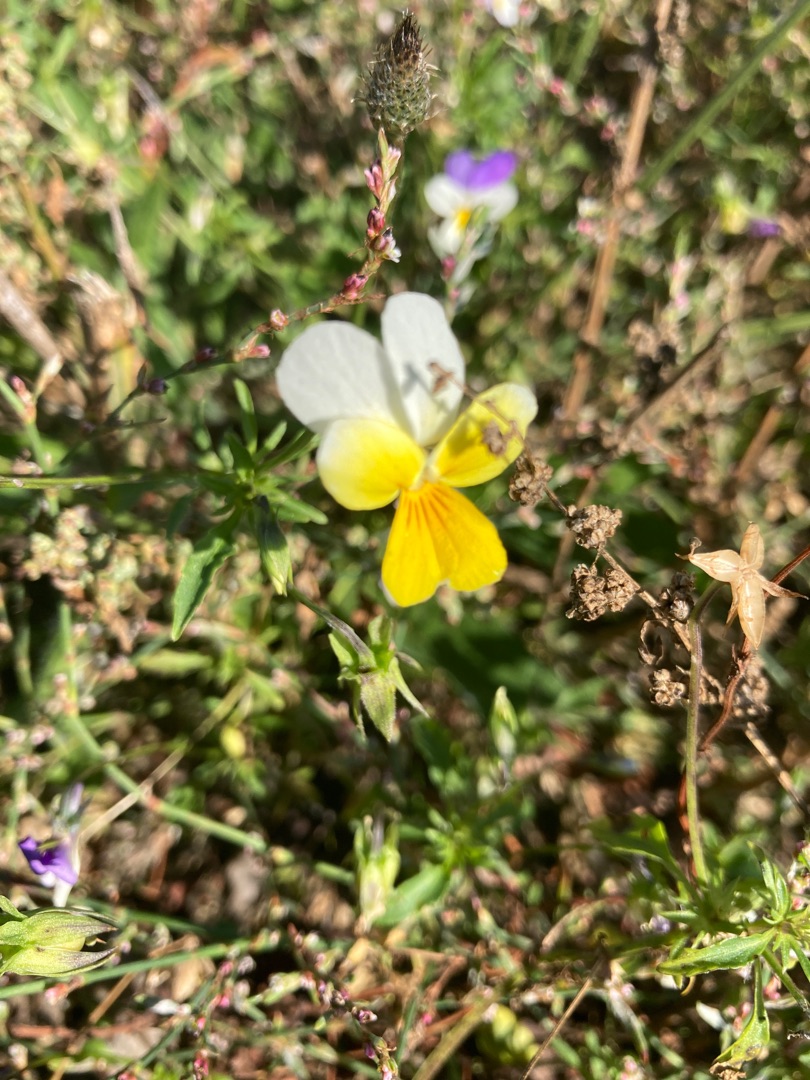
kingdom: Plantae
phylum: Tracheophyta
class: Magnoliopsida
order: Malpighiales
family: Violaceae
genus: Viola
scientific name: Viola tricolor
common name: Stedmoderblomst
